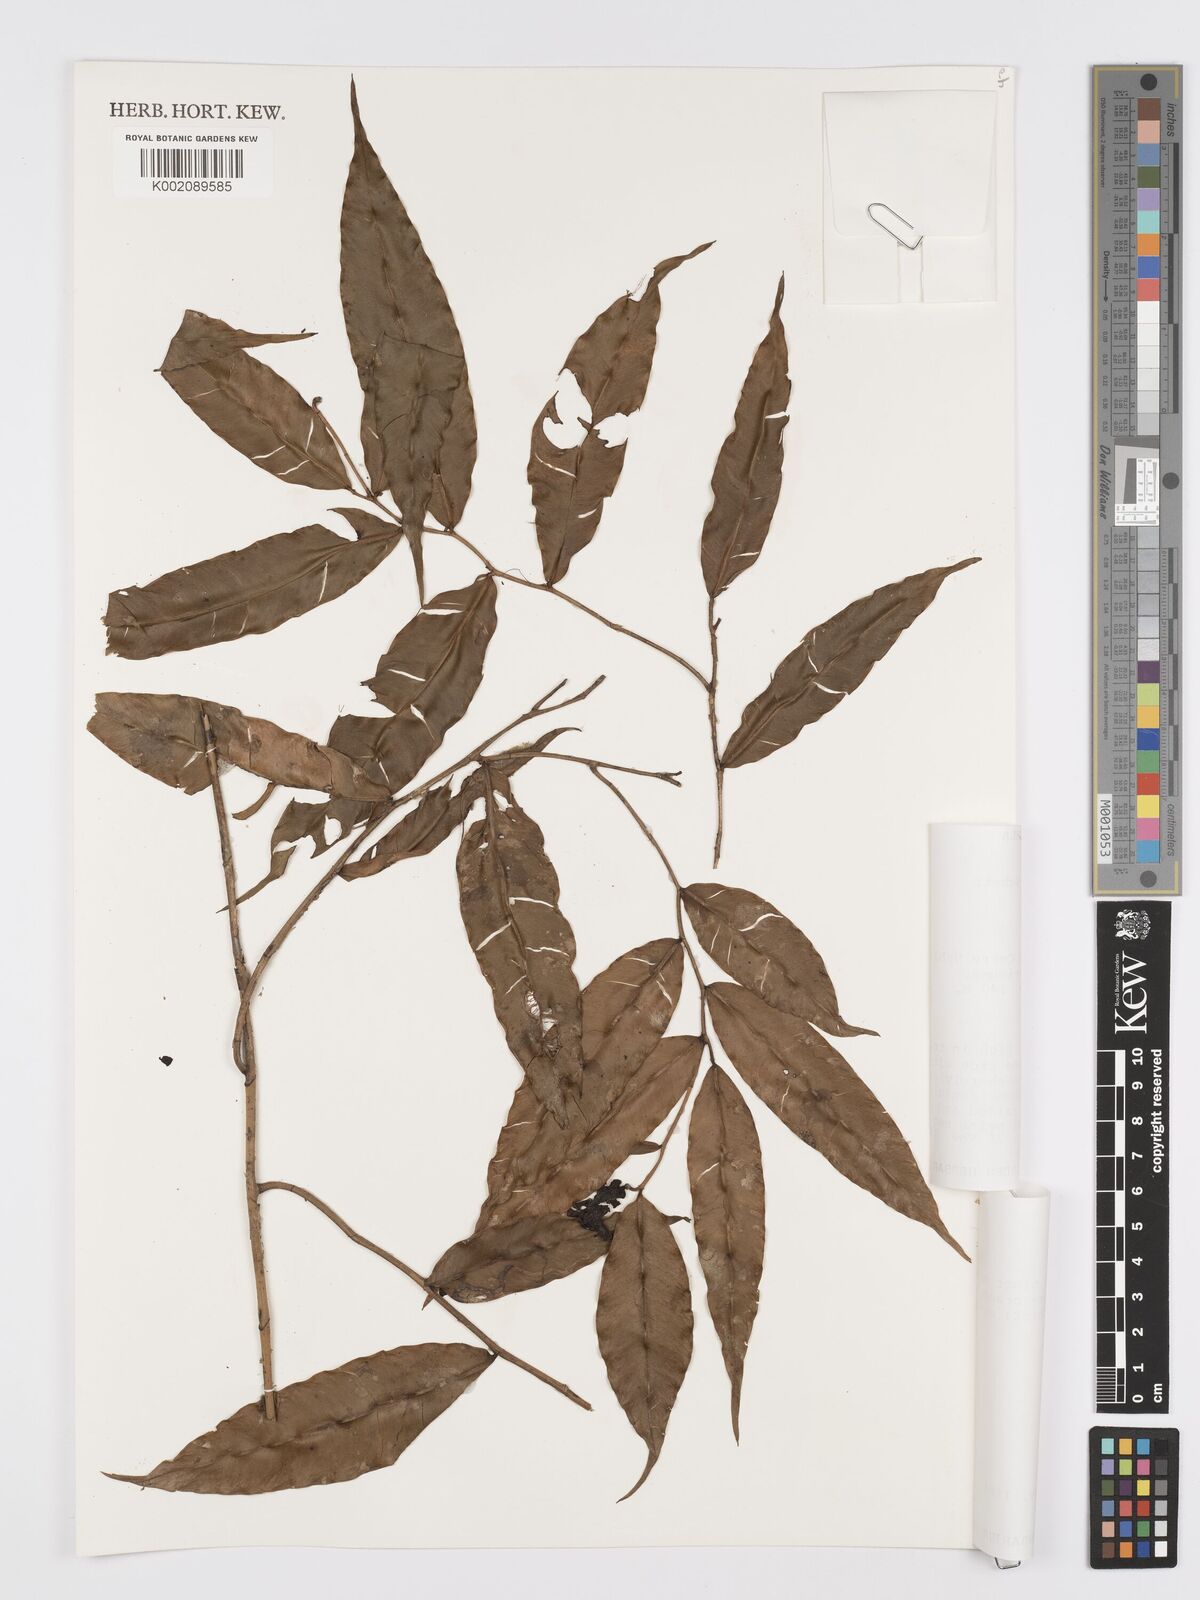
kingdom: Plantae
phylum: Tracheophyta
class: Liliopsida
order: Alismatales
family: Araceae
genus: Heteropsis
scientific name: Heteropsis spruceana
